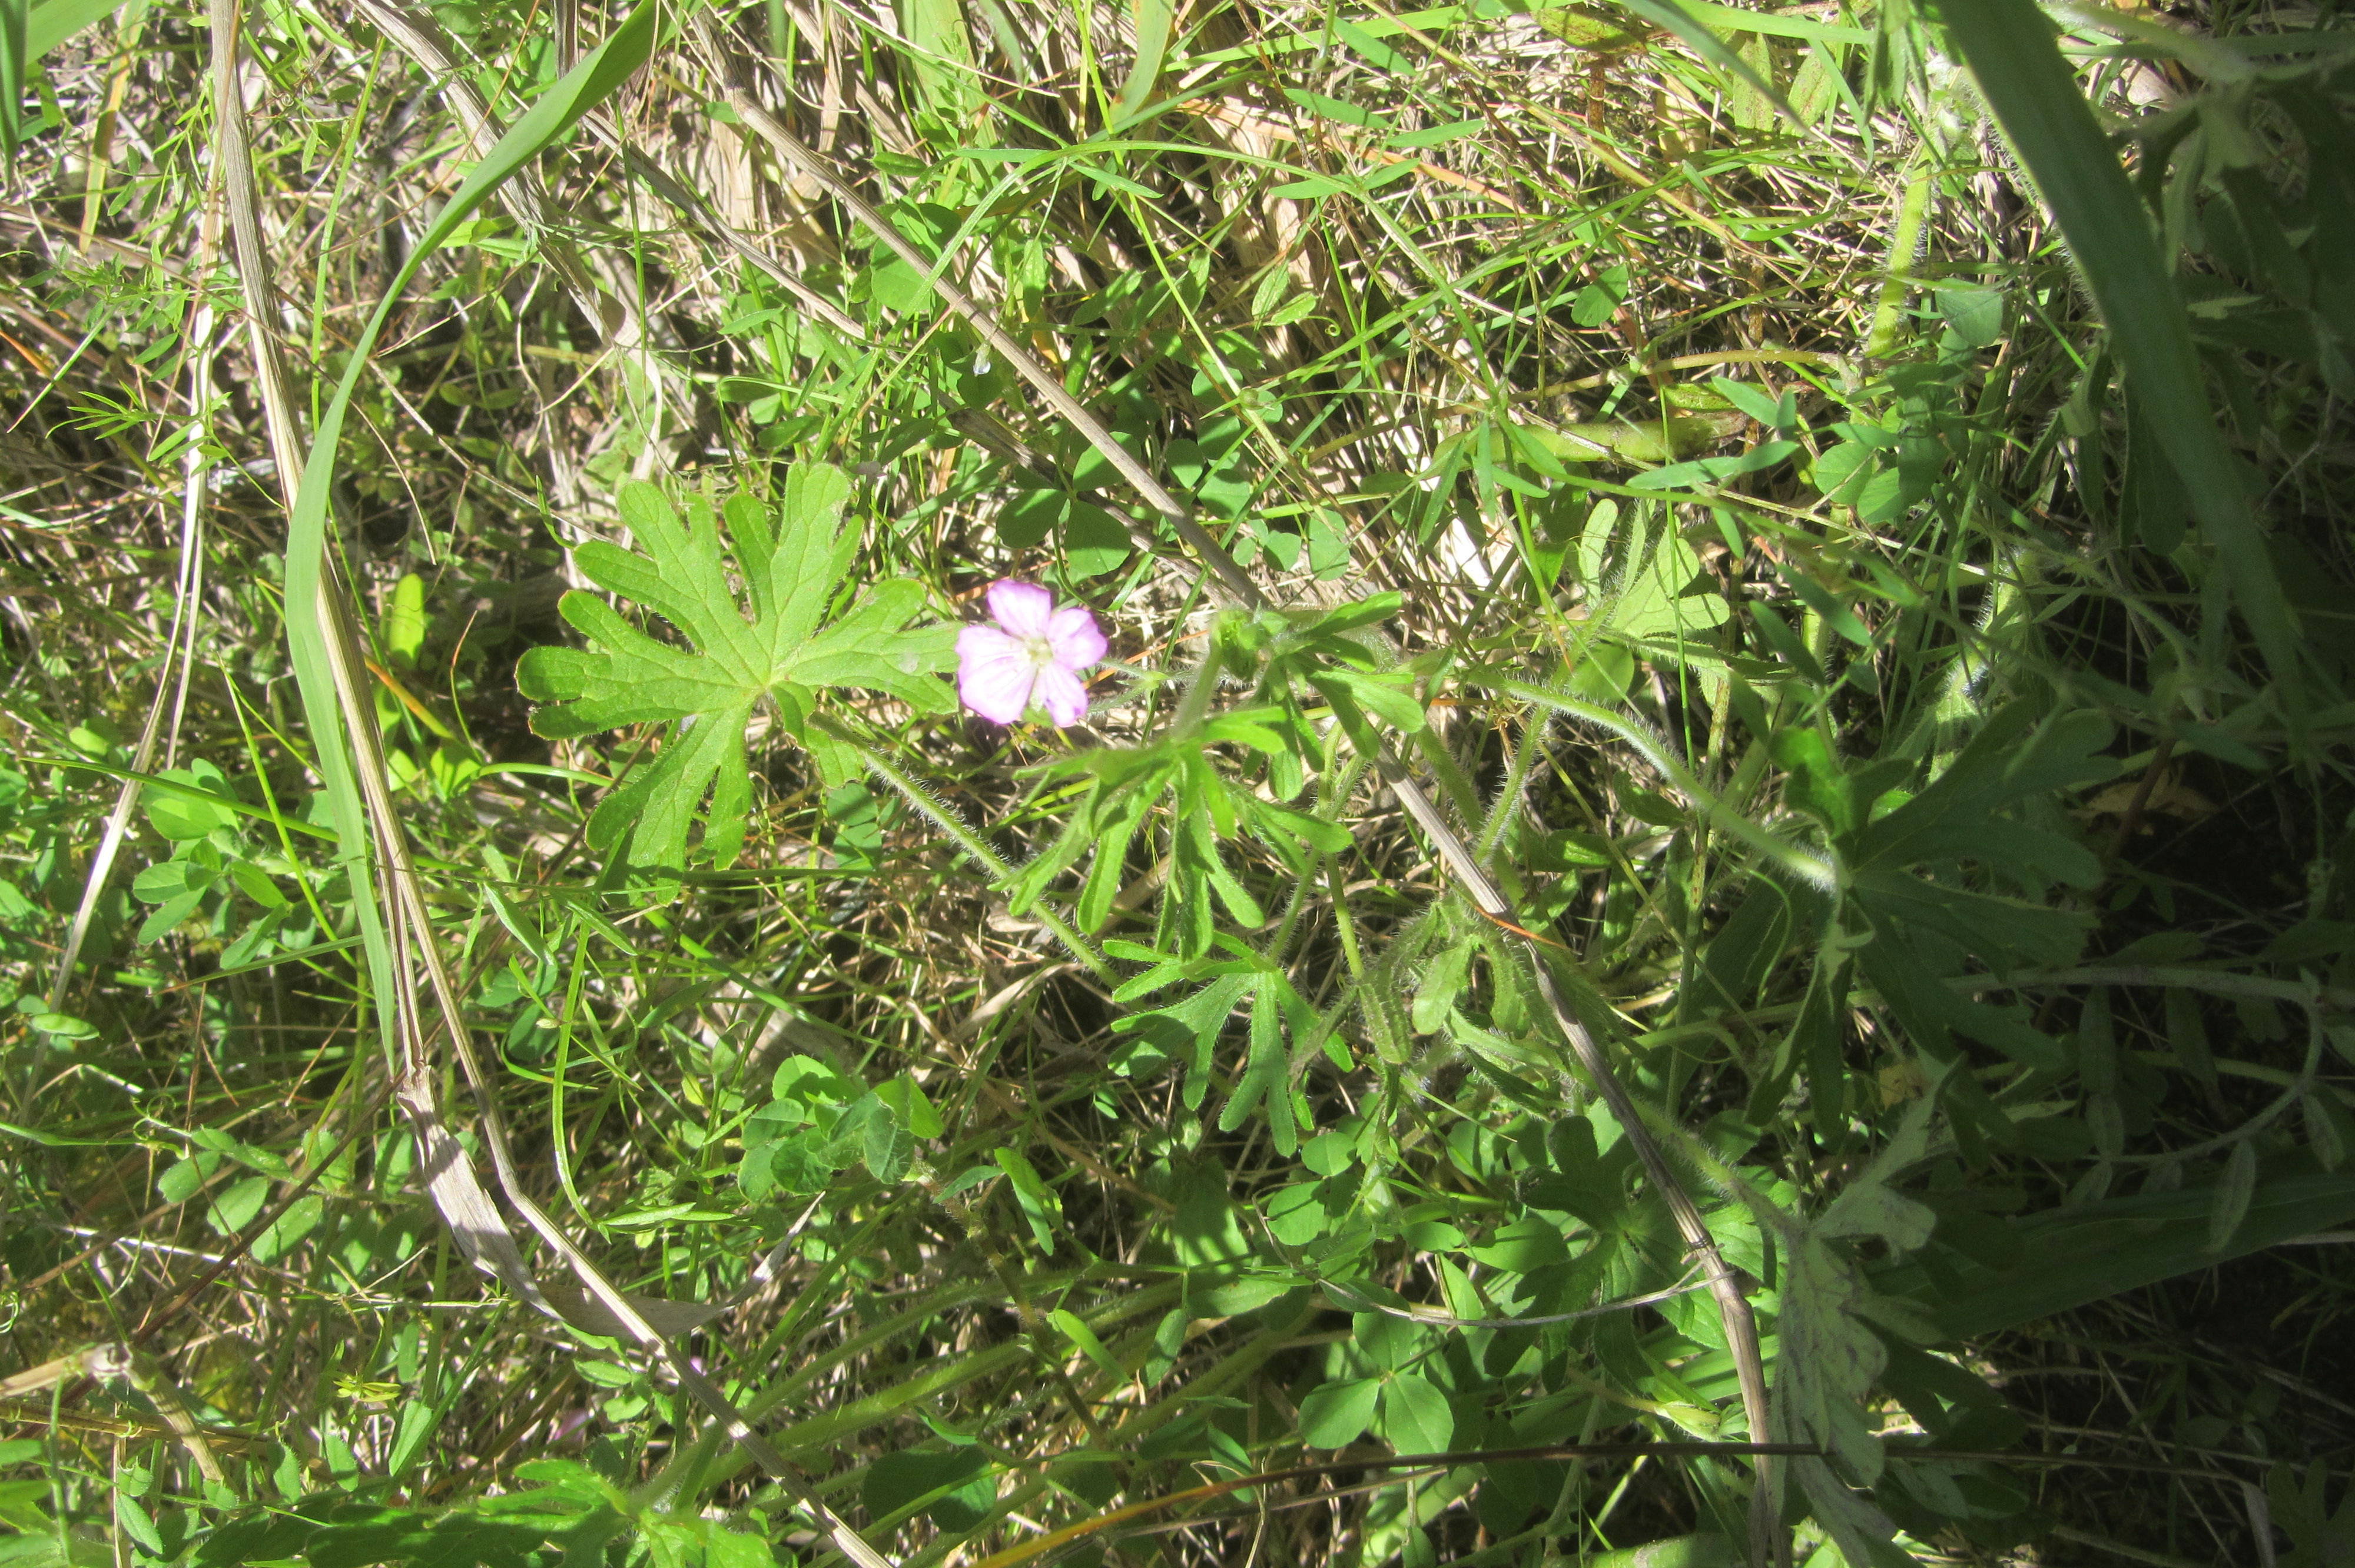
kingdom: Plantae
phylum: Tracheophyta
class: Magnoliopsida
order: Geraniales
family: Geraniaceae
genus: Geranium
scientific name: Geranium solanderi
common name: Solander's geranium
